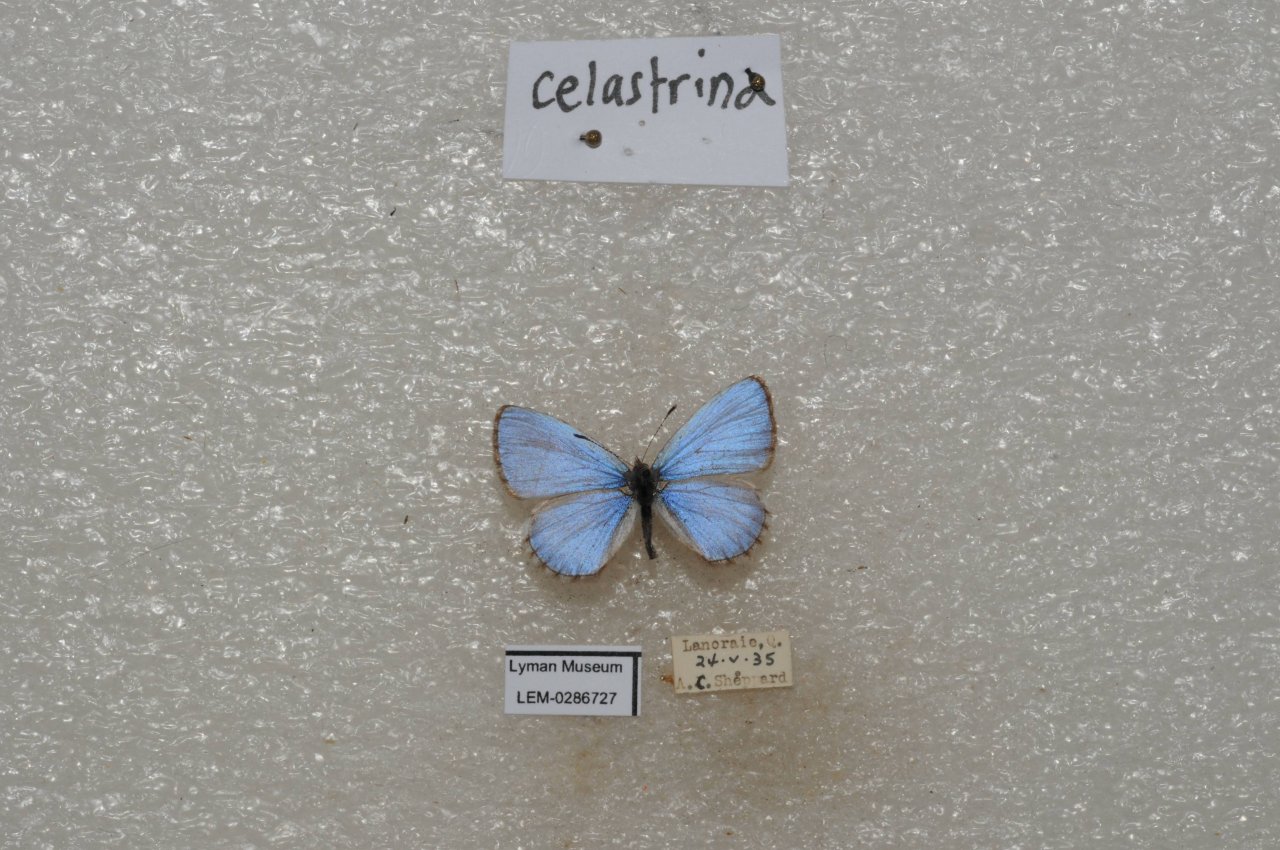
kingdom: Animalia
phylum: Arthropoda
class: Insecta
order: Lepidoptera
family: Lycaenidae
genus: Celastrina
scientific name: Celastrina lucia
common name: Northern Spring Azure
